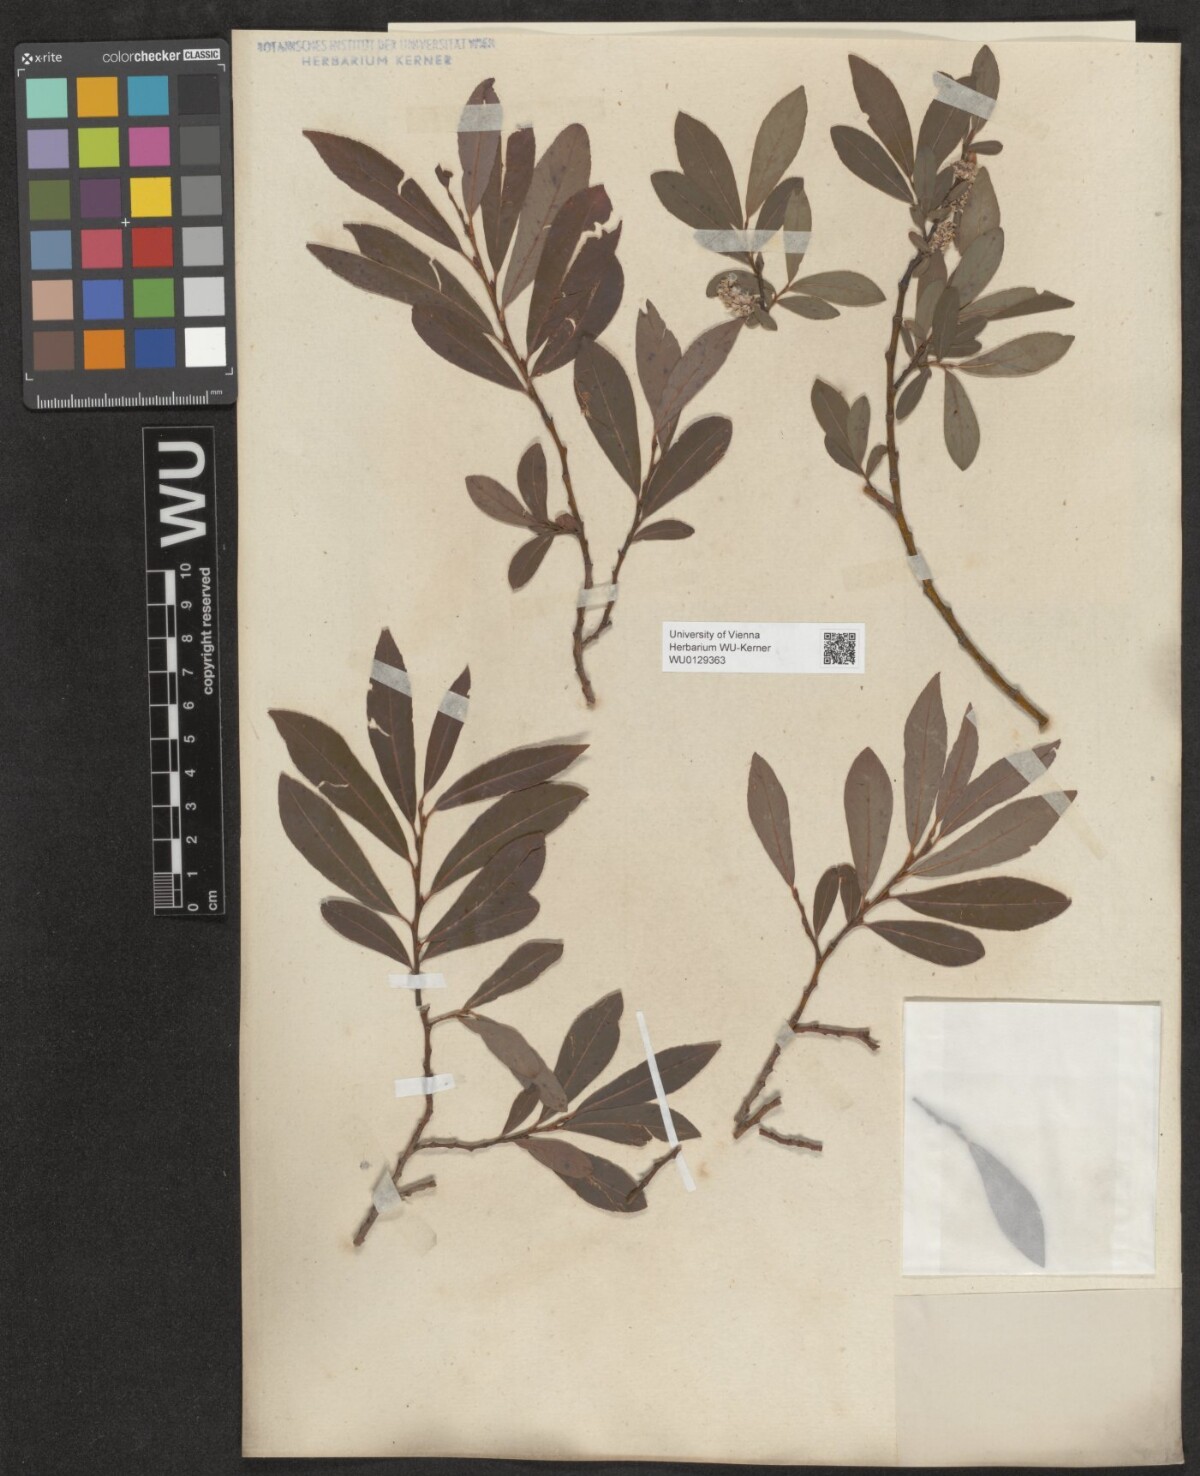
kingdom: Plantae
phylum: Tracheophyta
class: Magnoliopsida
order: Malpighiales
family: Salicaceae
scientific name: Salicaceae
